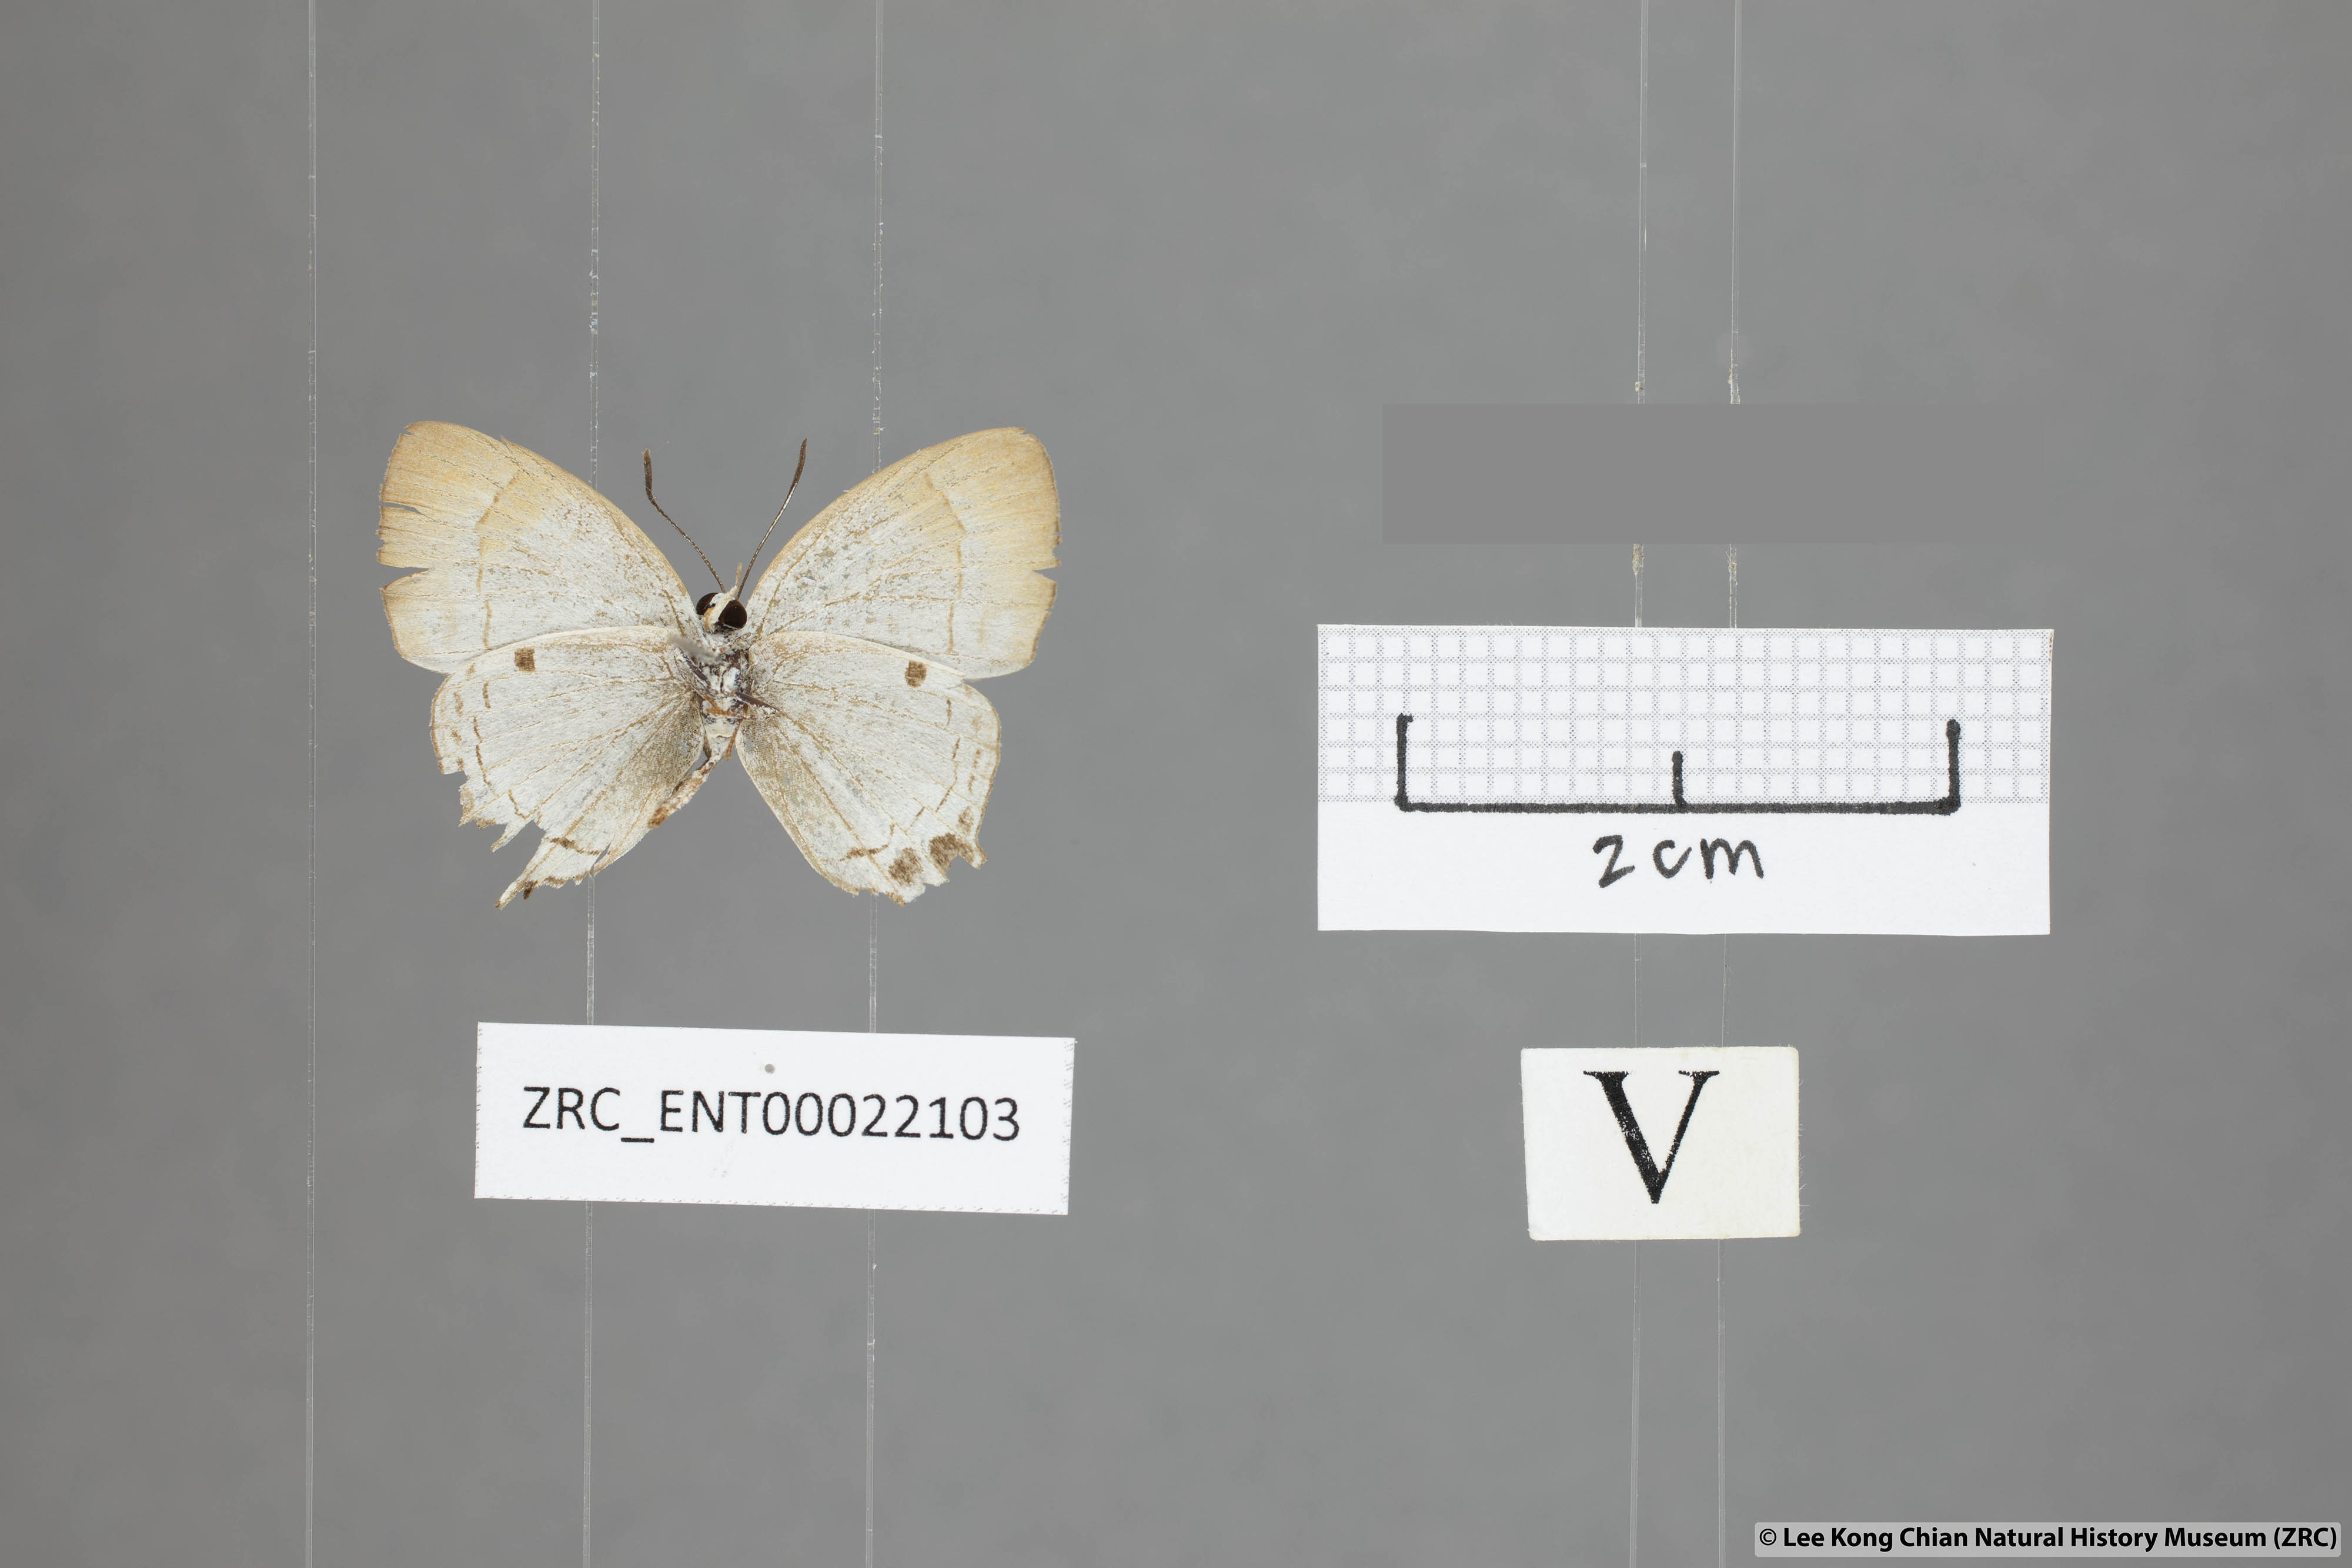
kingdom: Animalia
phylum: Arthropoda
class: Insecta
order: Lepidoptera
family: Lycaenidae
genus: Suasa
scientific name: Suasa lisides
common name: Red imperial
